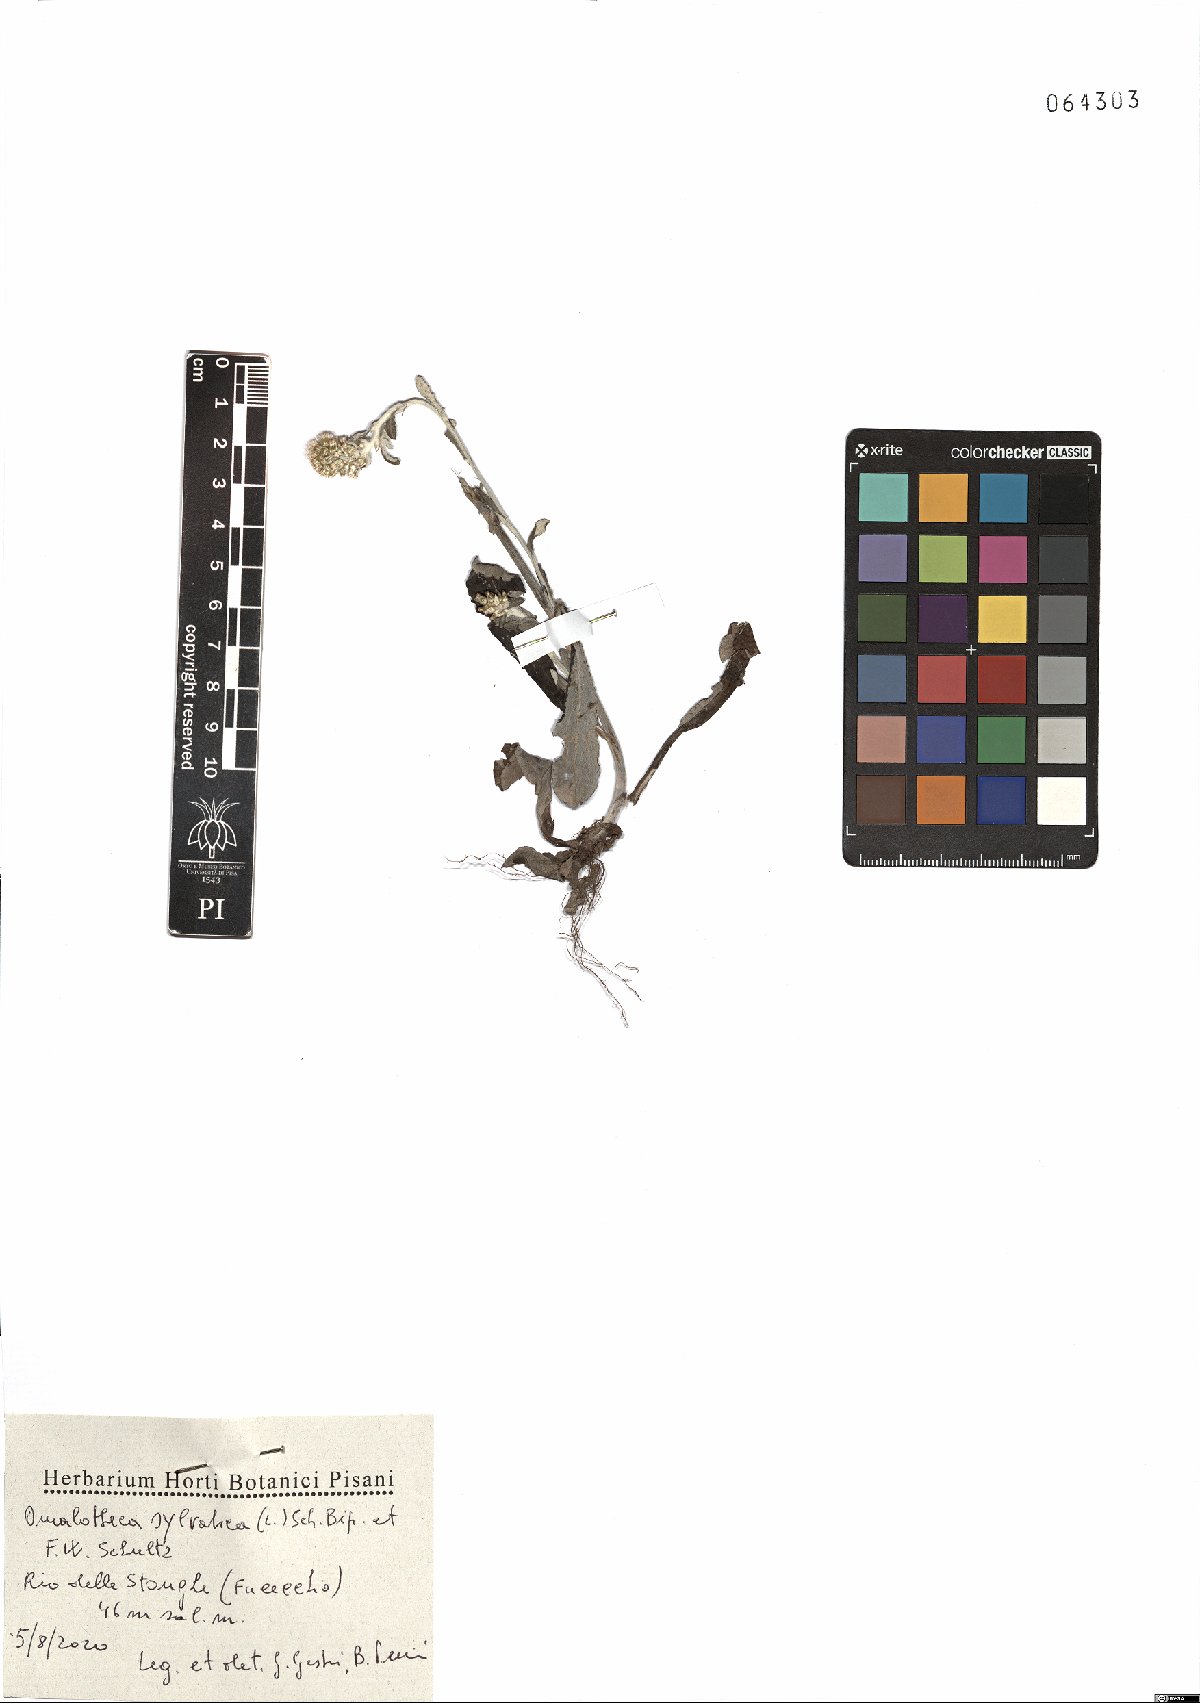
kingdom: Plantae
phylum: Tracheophyta
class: Magnoliopsida
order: Asterales
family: Asteraceae
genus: Omalotheca
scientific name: Omalotheca sylvatica
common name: Heath cudweed
